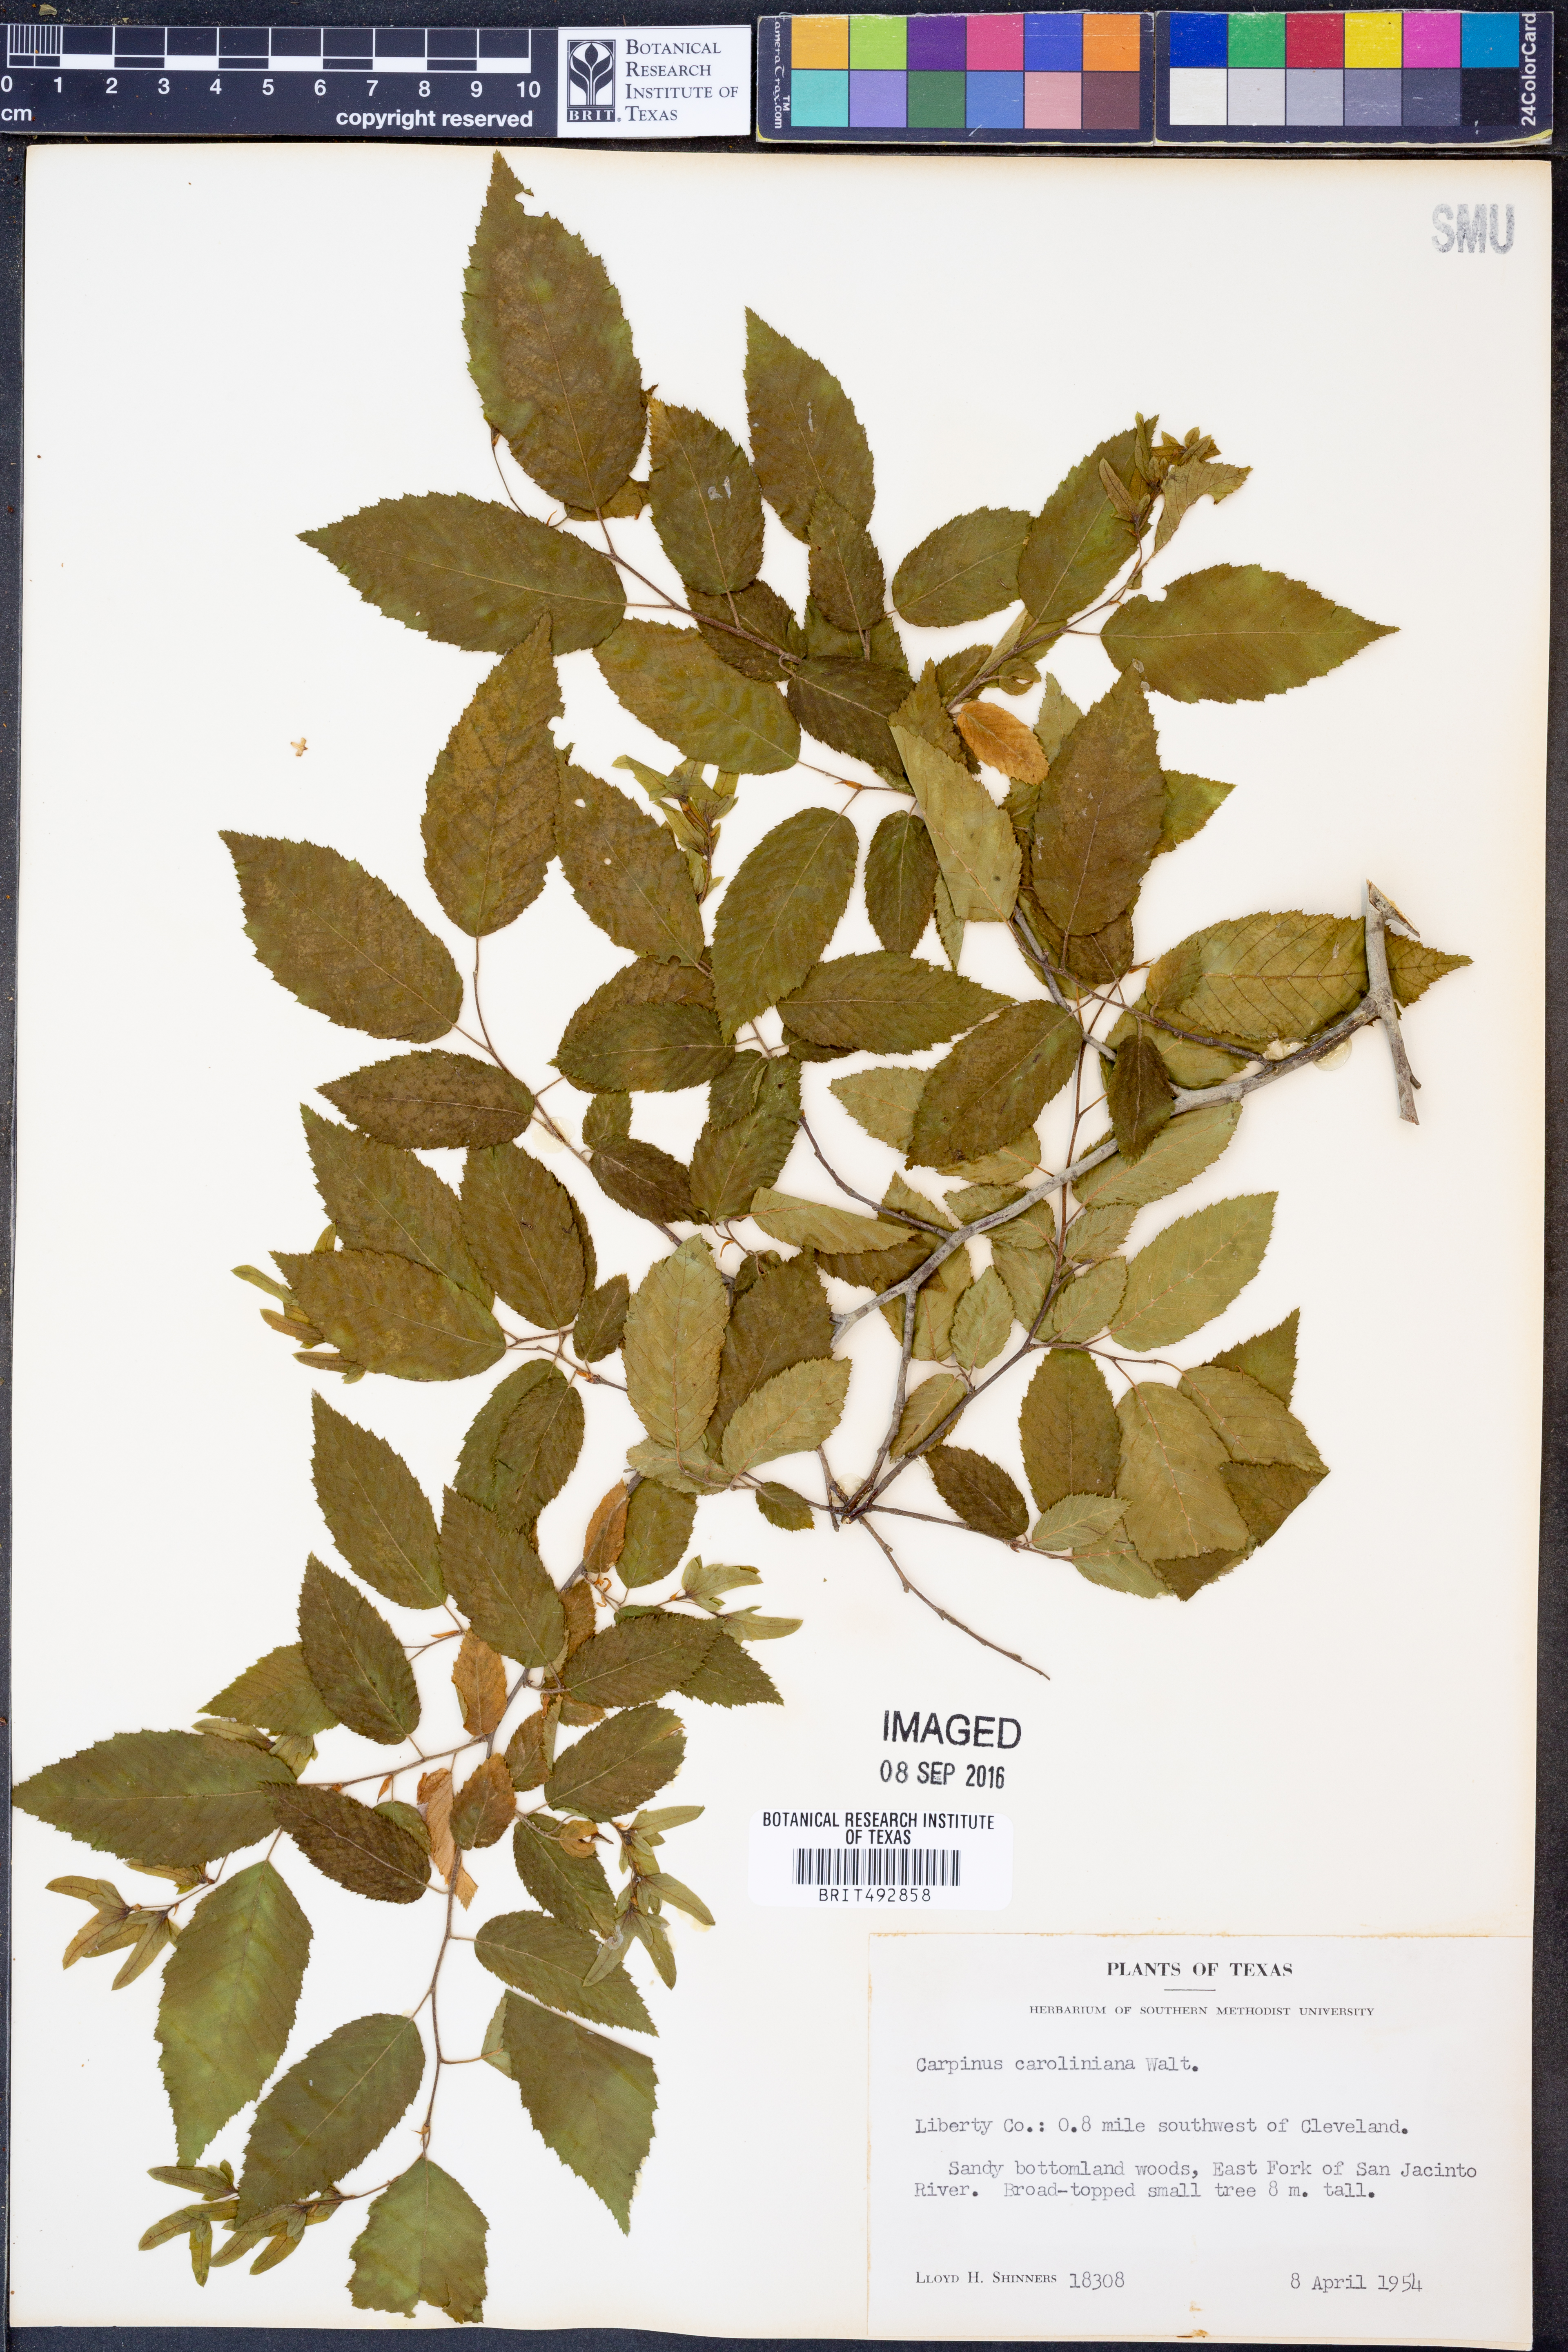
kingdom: Plantae
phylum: Tracheophyta
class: Magnoliopsida
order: Fagales
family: Betulaceae
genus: Carpinus
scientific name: Carpinus caroliniana
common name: American hornbeam
